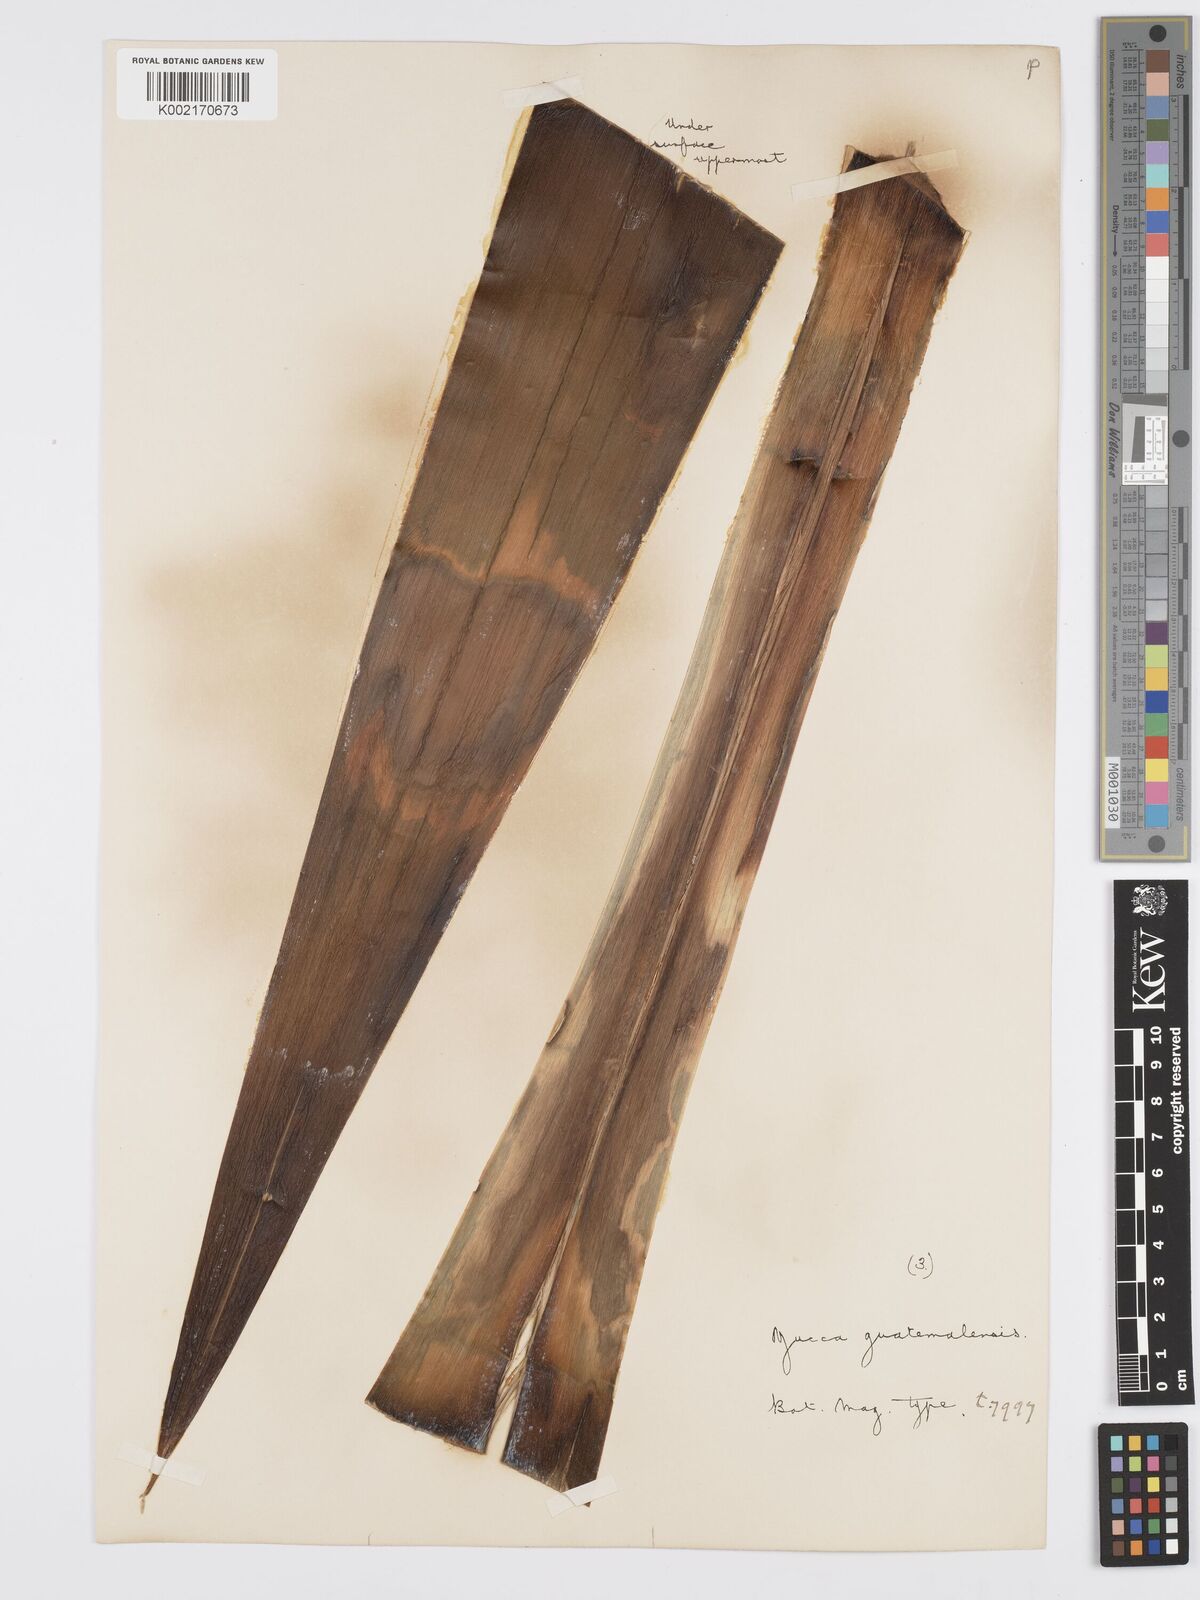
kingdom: Plantae
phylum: Tracheophyta
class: Liliopsida
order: Asparagales
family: Asparagaceae
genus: Yucca
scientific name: Yucca gigantea
